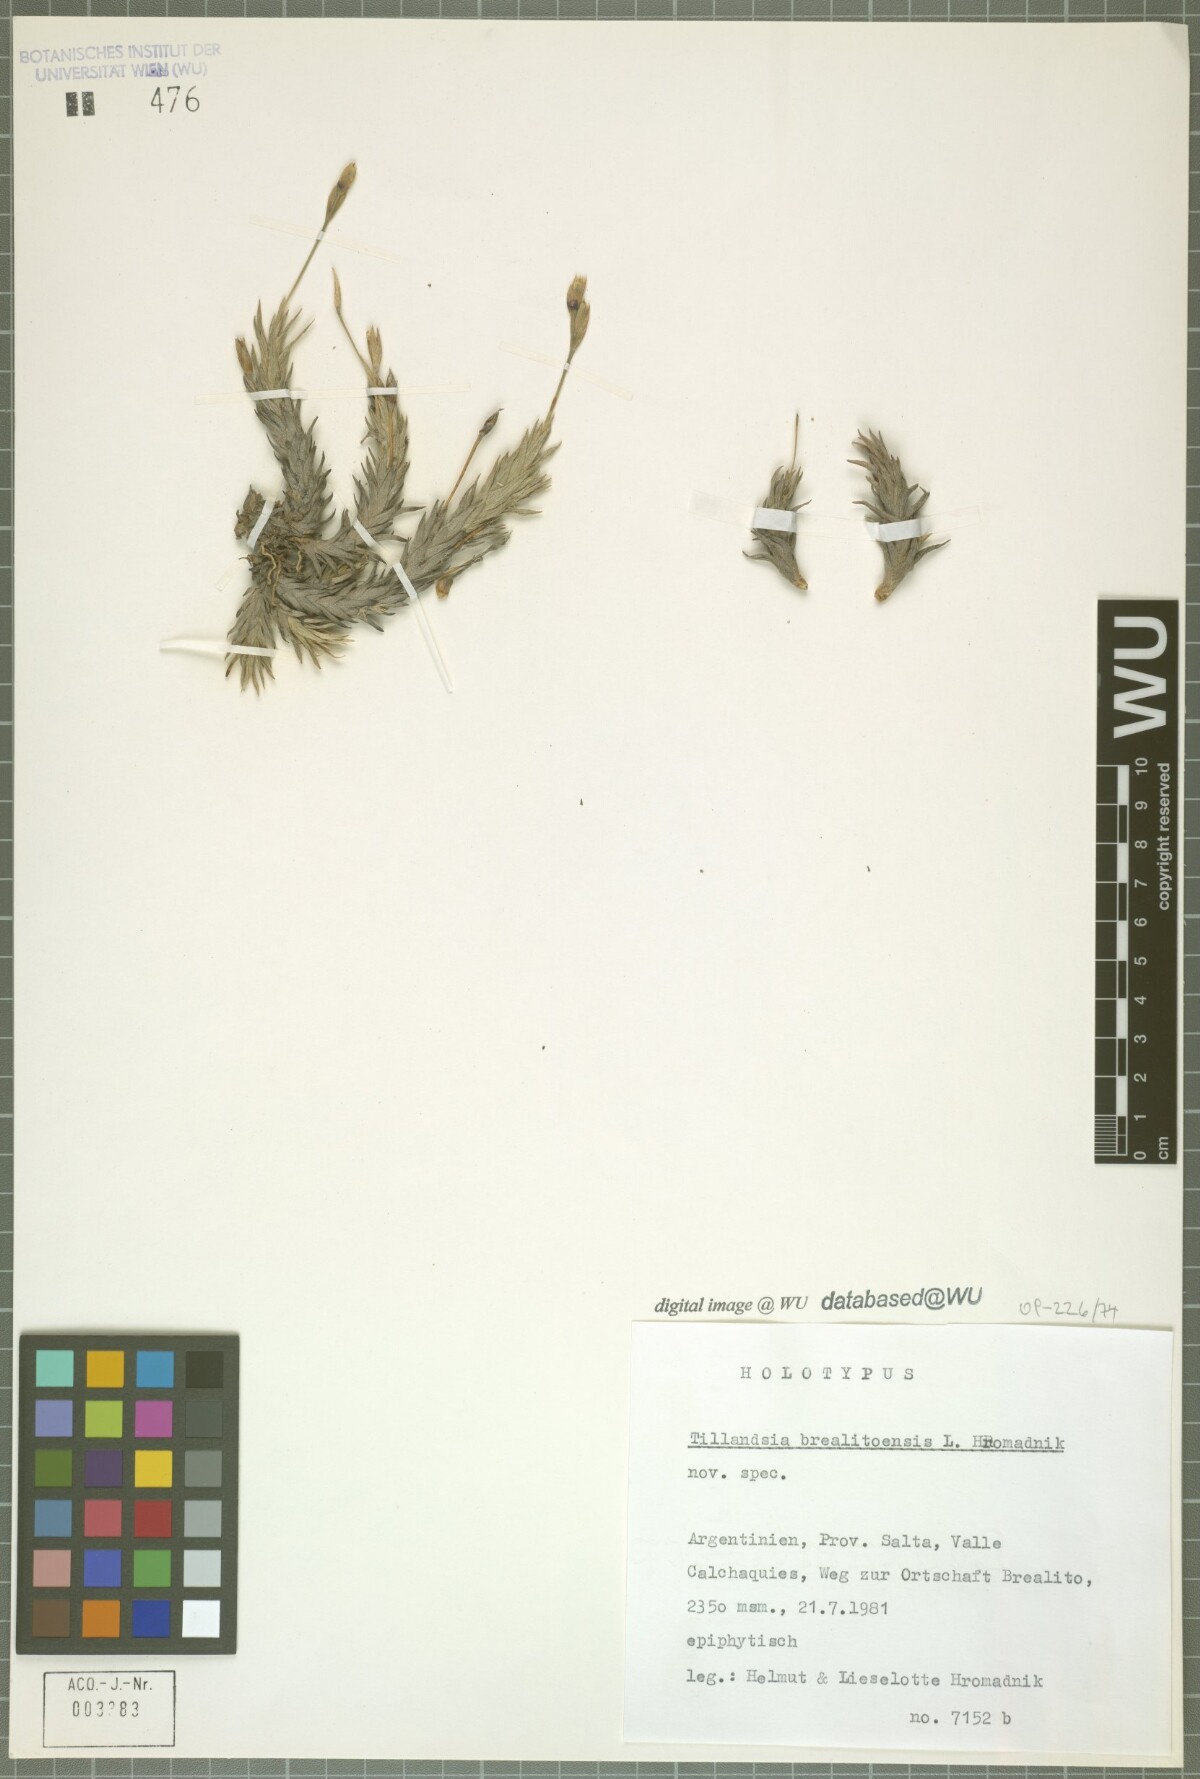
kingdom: Plantae
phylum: Tracheophyta
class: Liliopsida
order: Poales
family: Bromeliaceae
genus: Tillandsia
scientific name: Tillandsia brealitoensis
